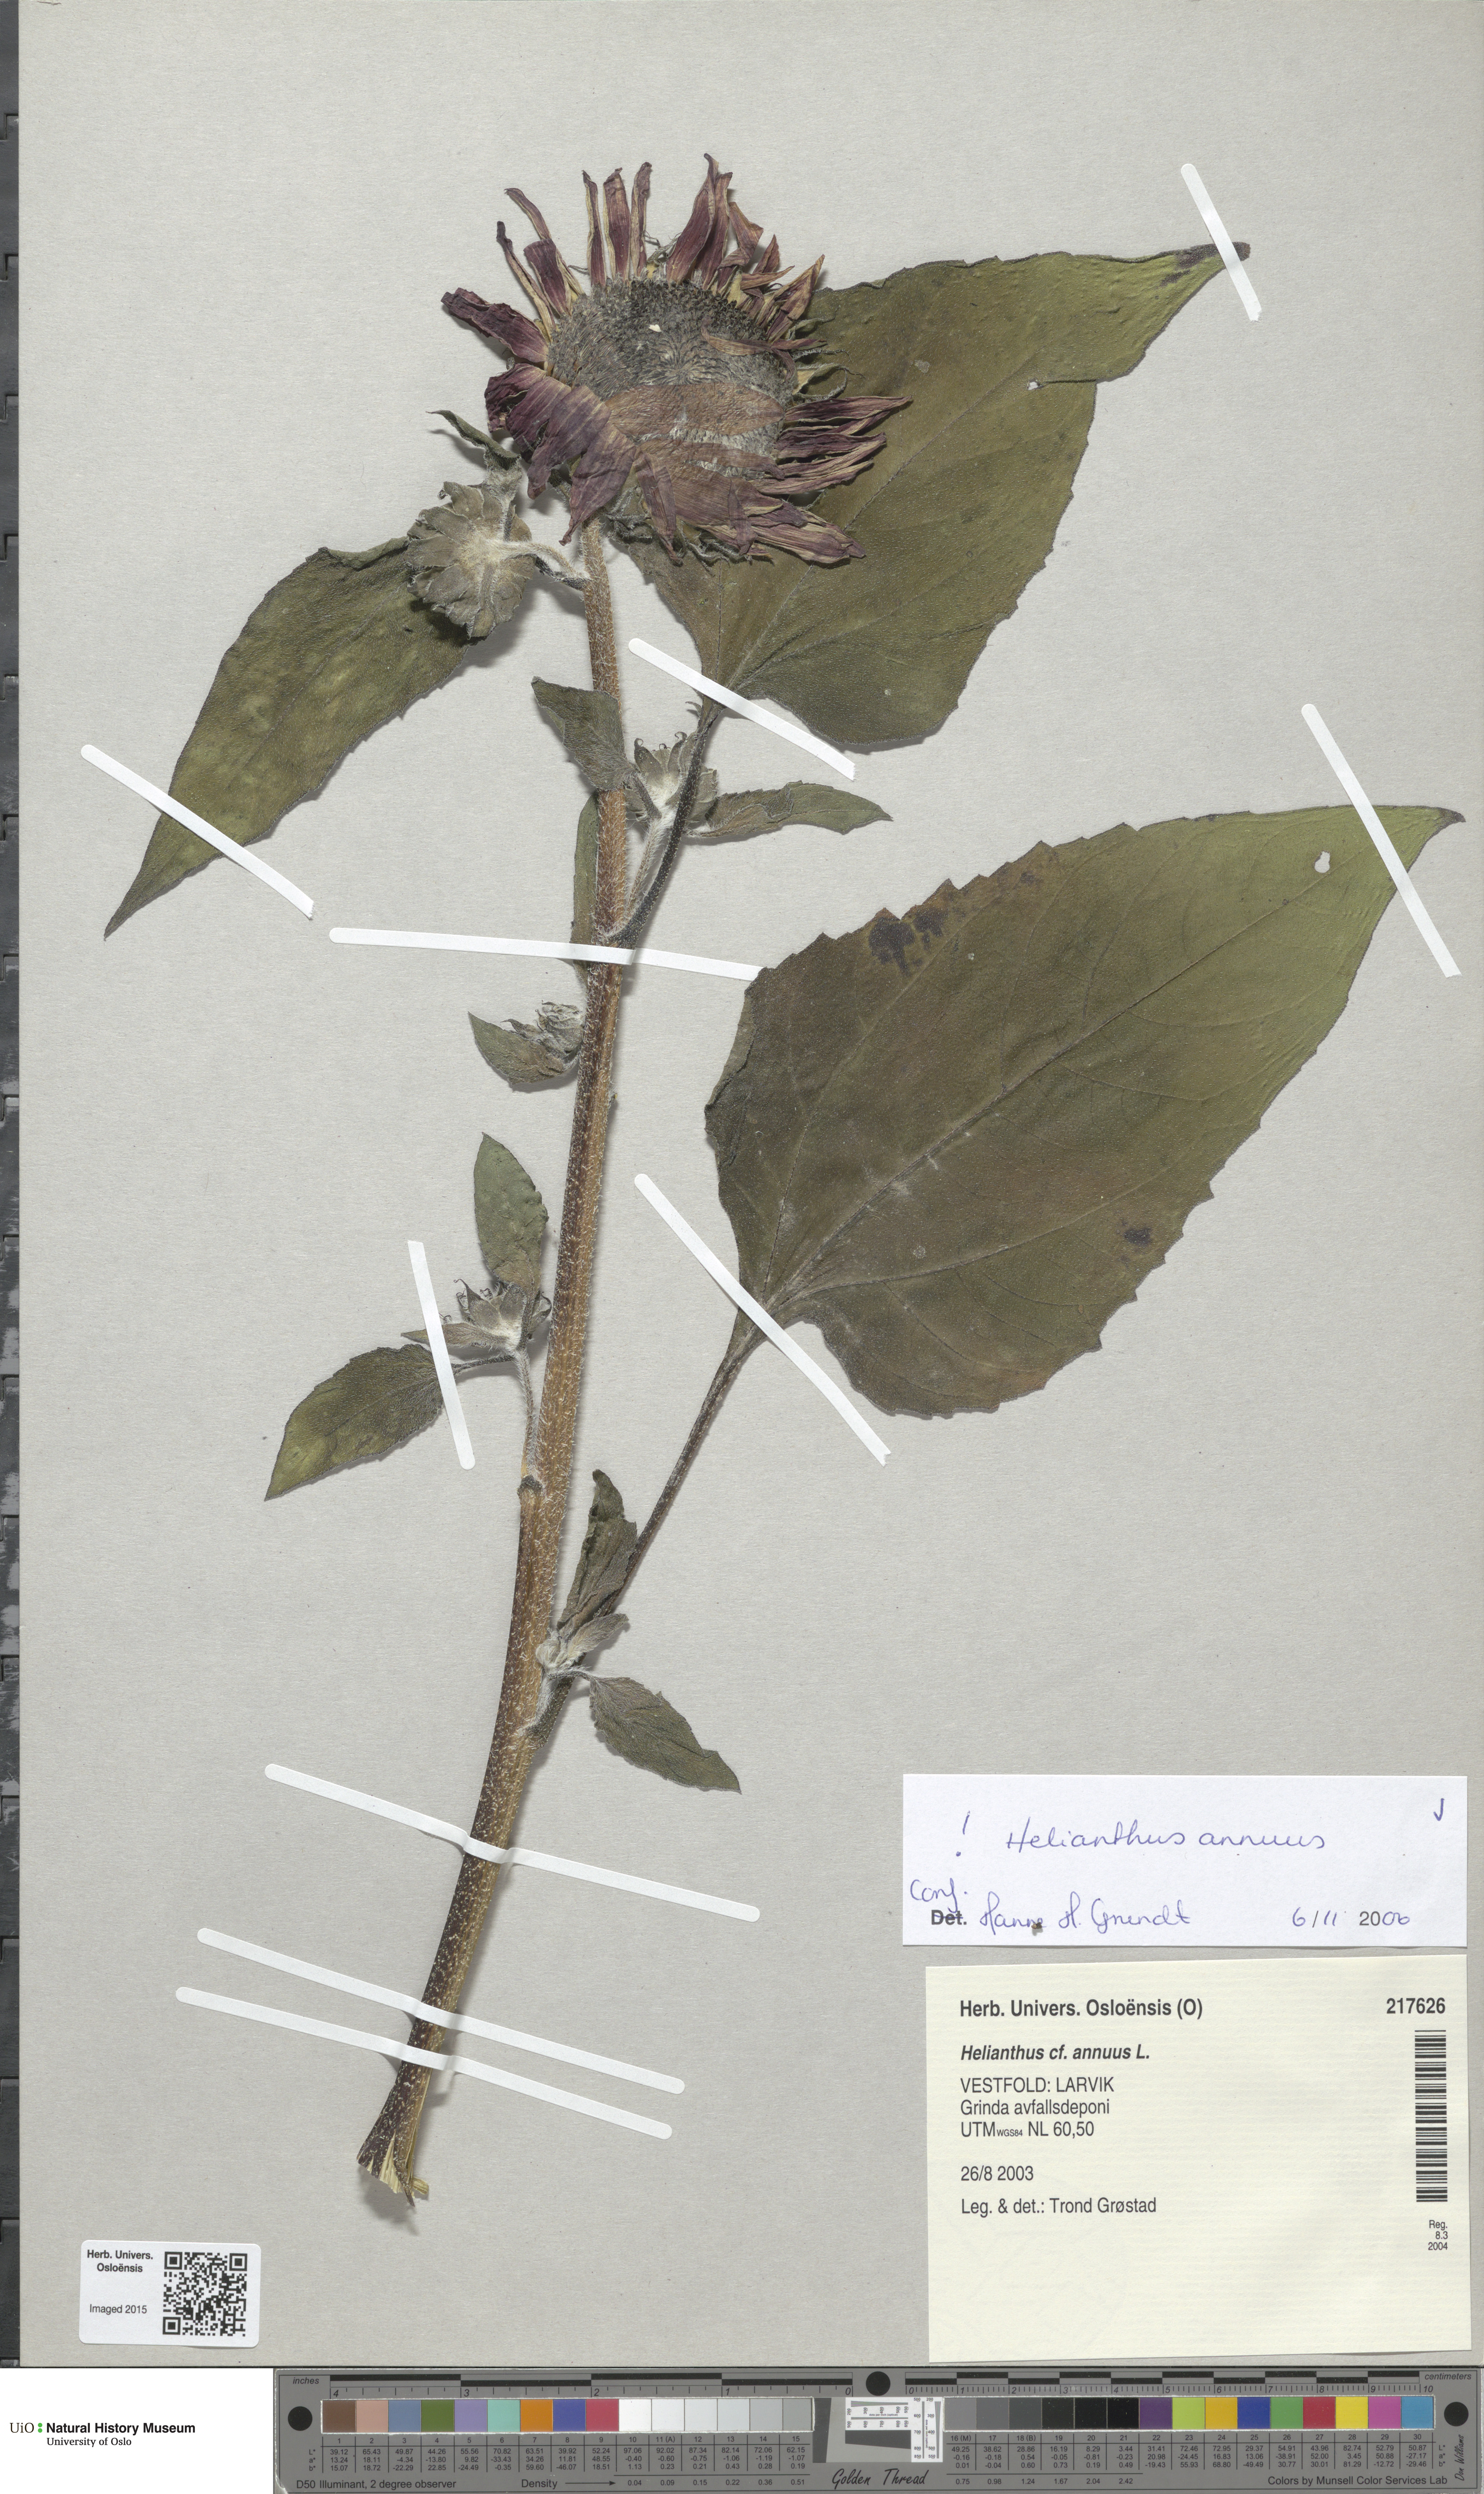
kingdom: Plantae
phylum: Tracheophyta
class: Magnoliopsida
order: Asterales
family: Asteraceae
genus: Helianthus
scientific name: Helianthus annuus
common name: Sunflower
